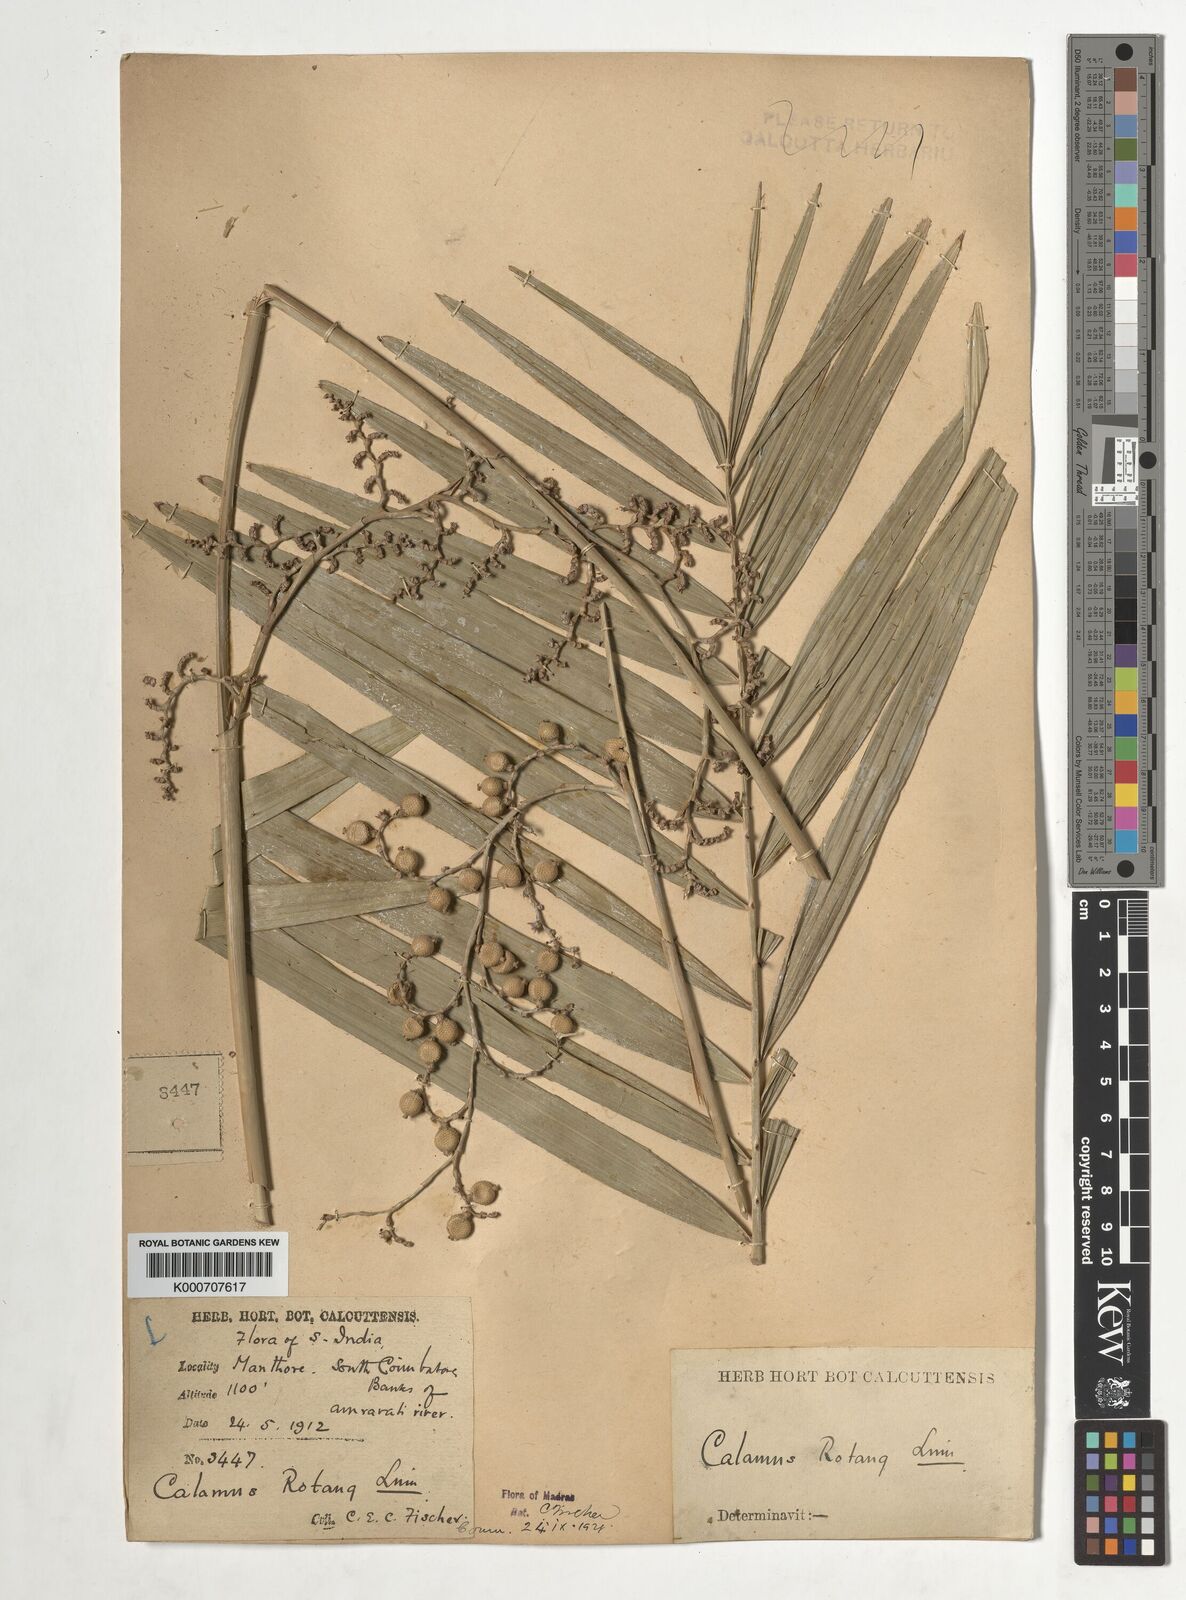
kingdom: Plantae
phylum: Tracheophyta
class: Liliopsida
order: Arecales
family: Arecaceae
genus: Calamus
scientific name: Calamus rotang
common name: Rattan cane
